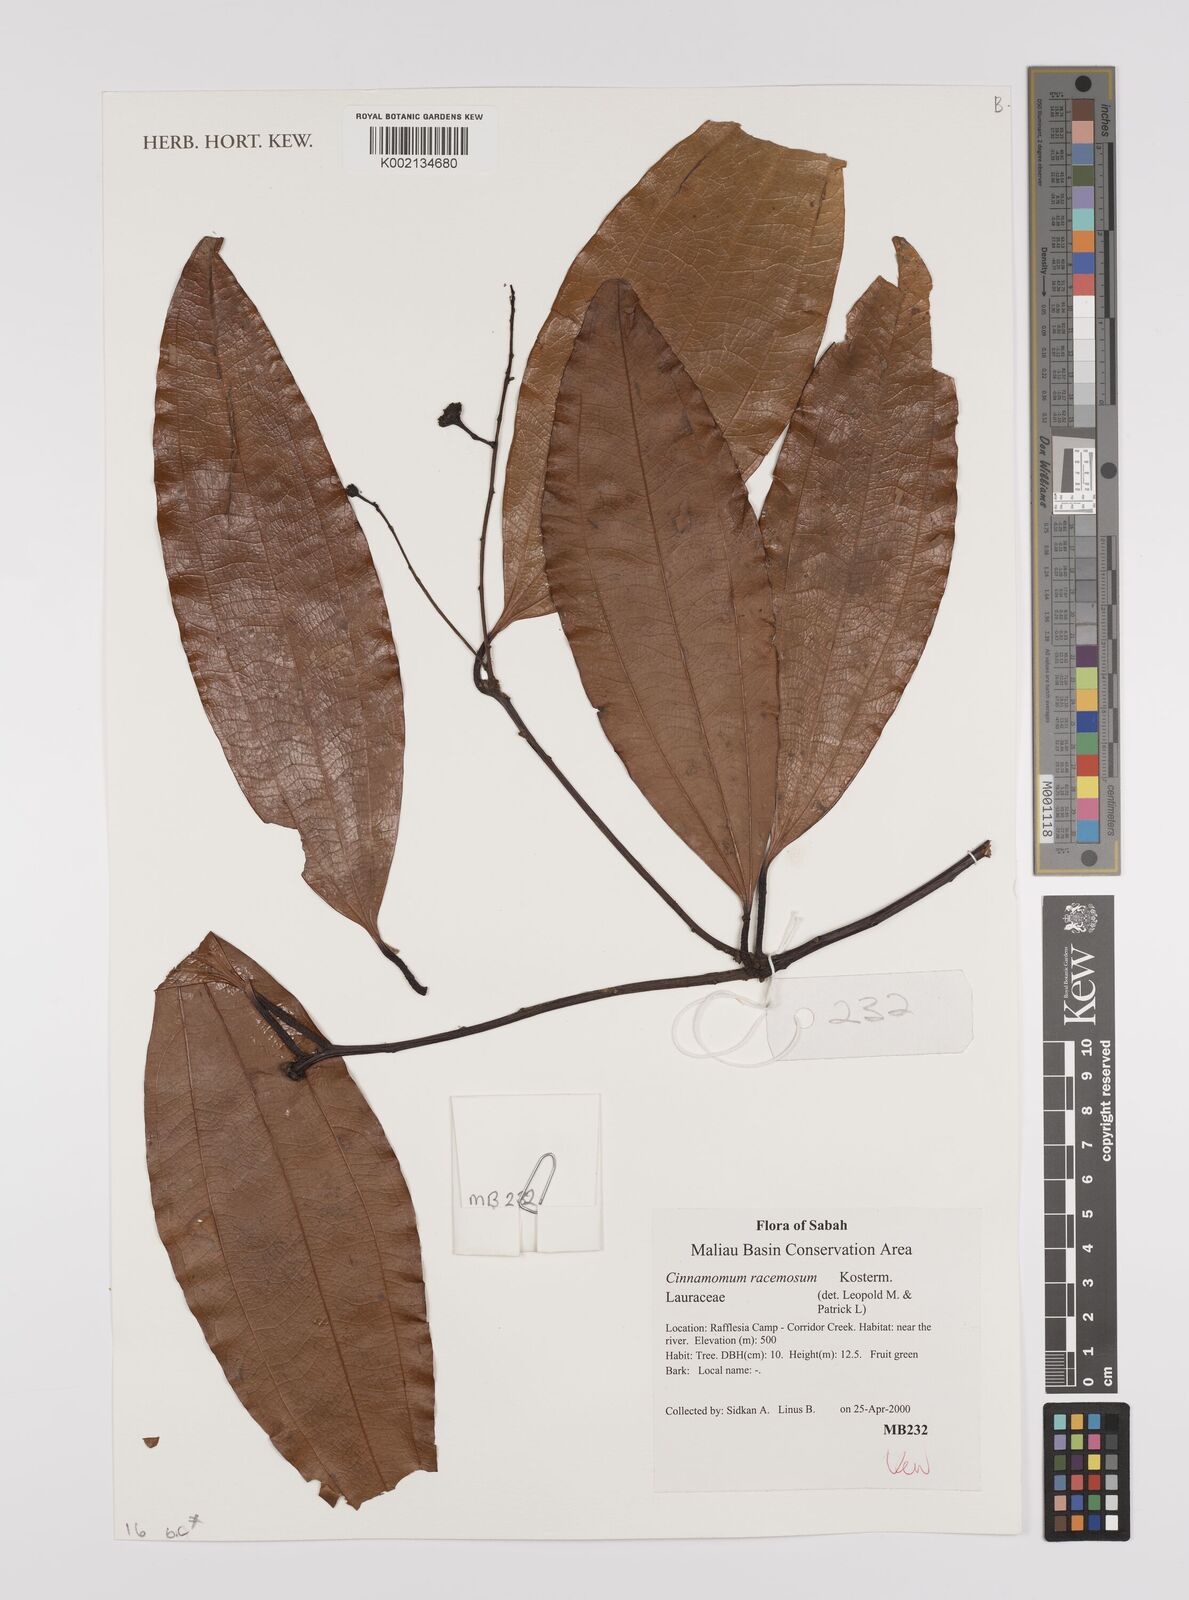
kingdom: Plantae
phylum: Tracheophyta
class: Magnoliopsida
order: Laurales
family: Lauraceae
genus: Cinnamomum
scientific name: Cinnamomum racemosum
